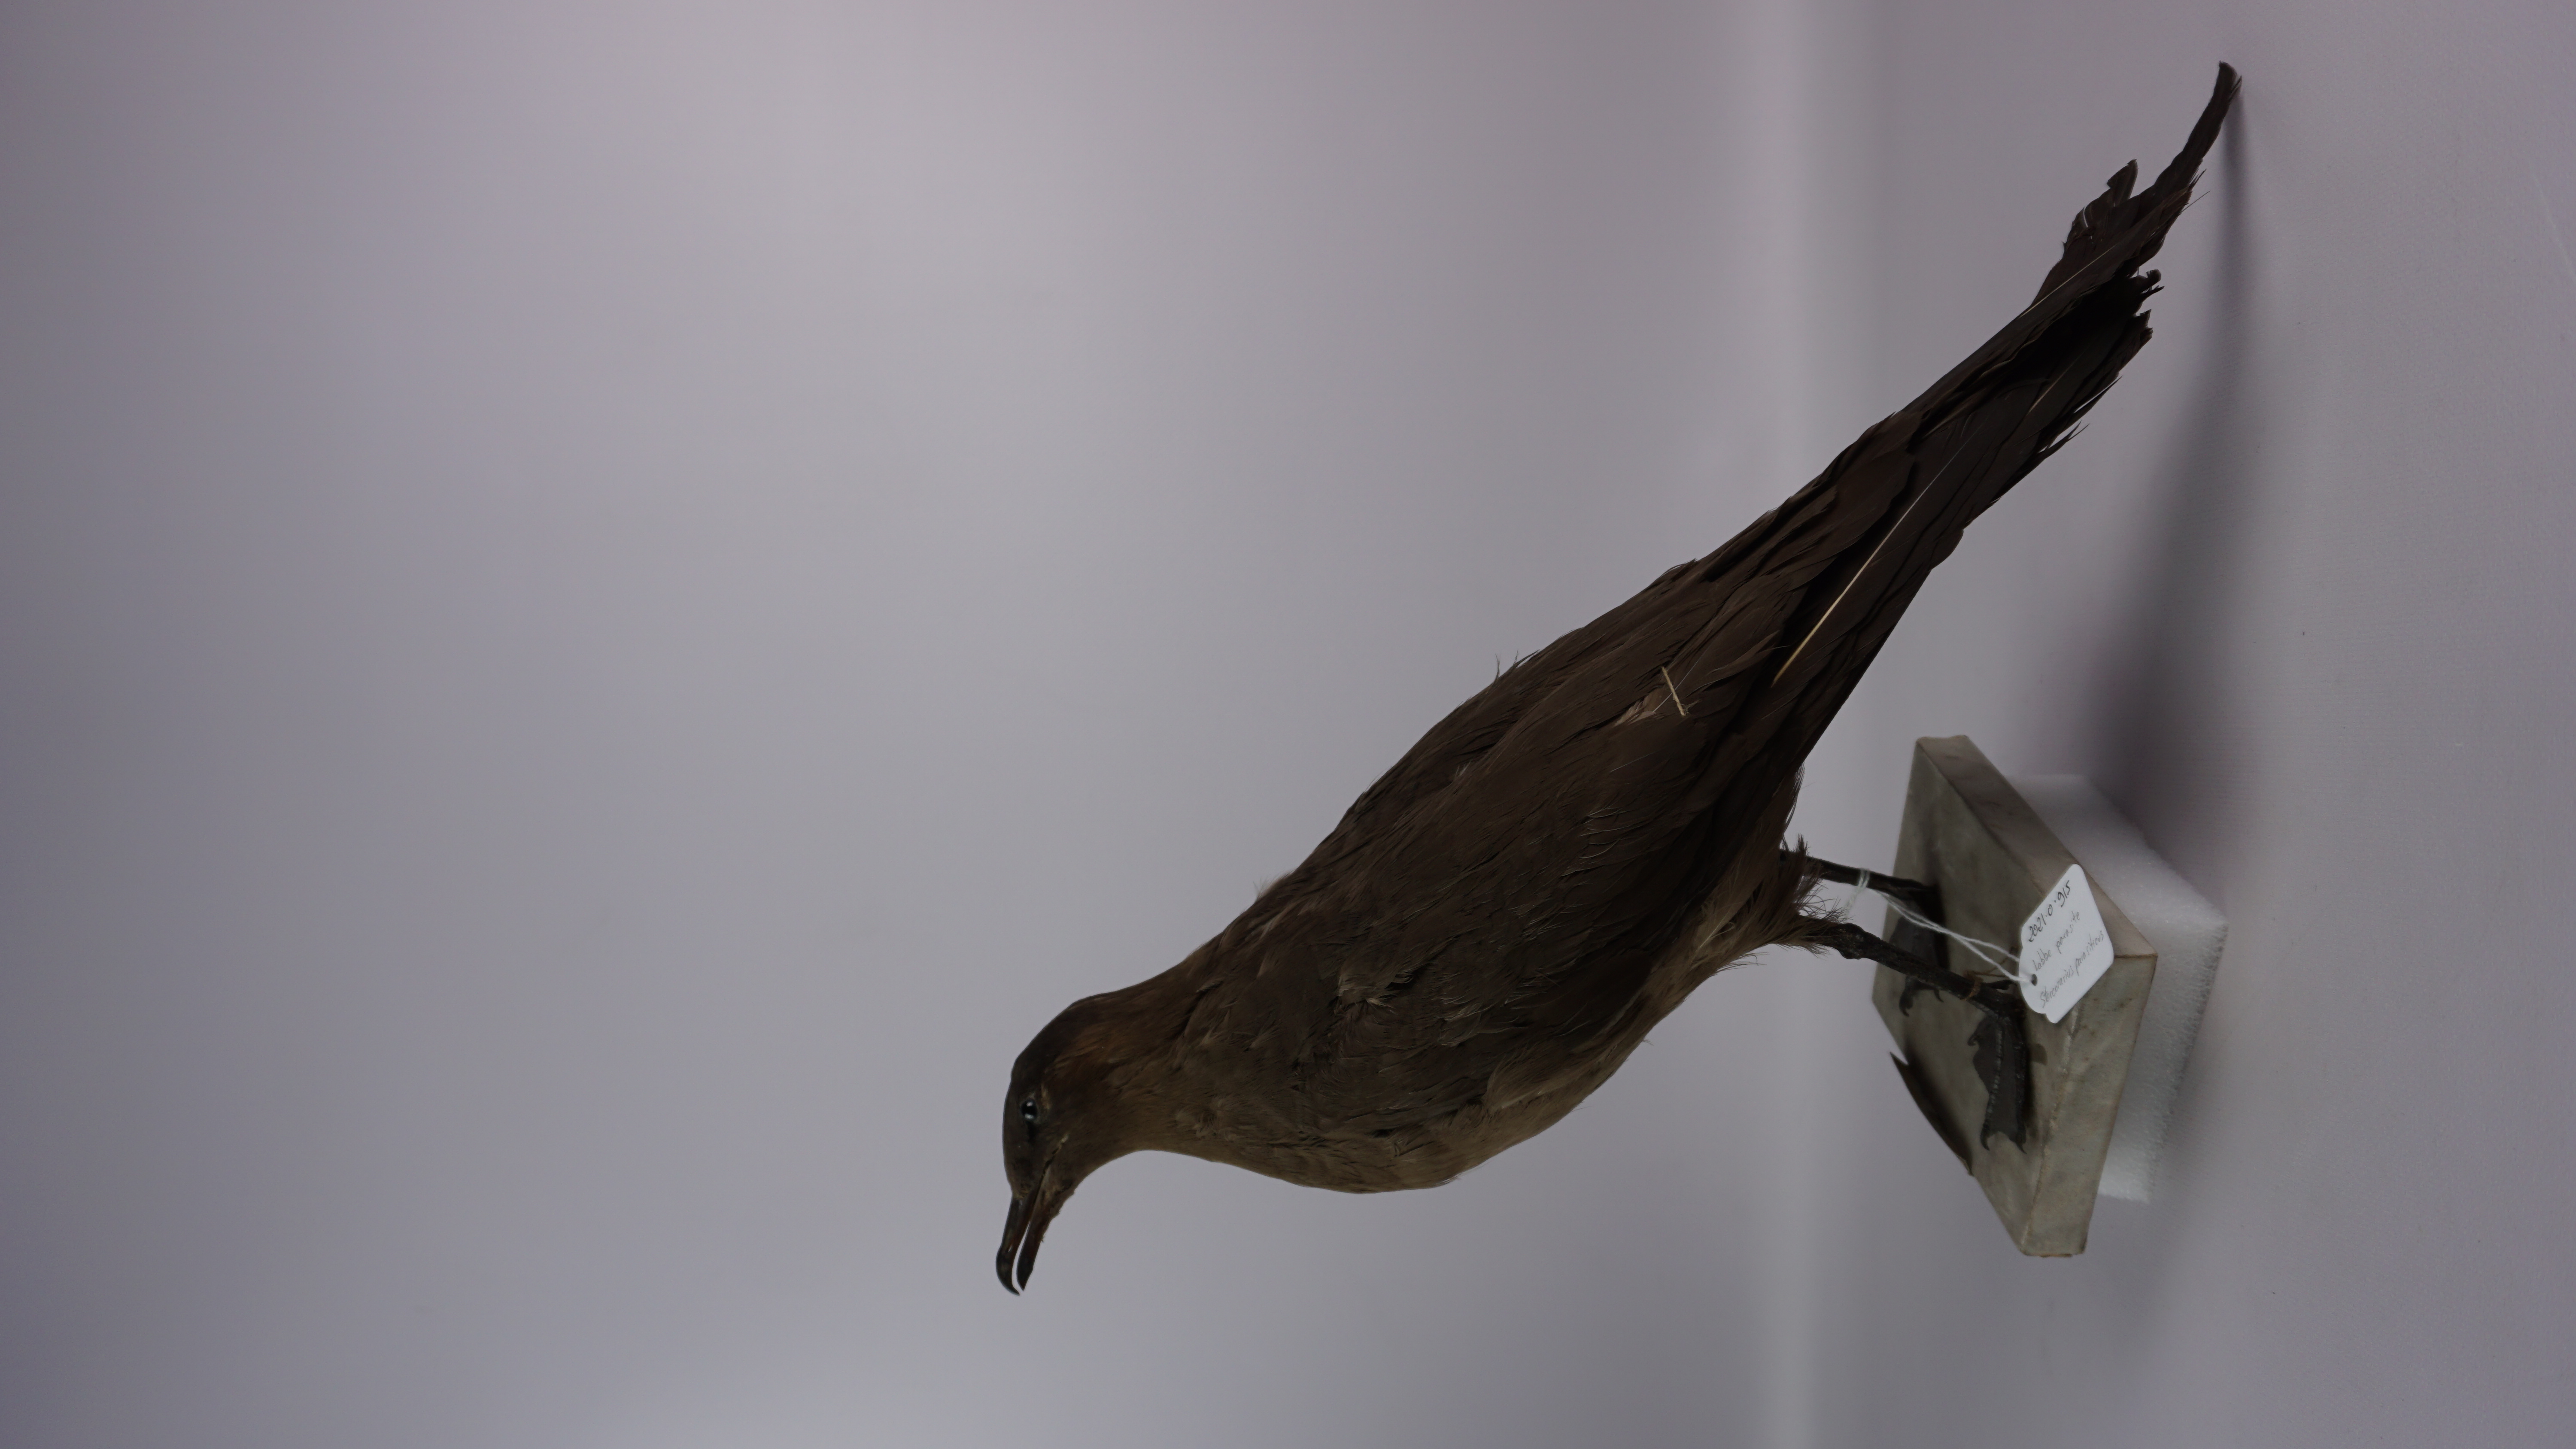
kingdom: Animalia
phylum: Chordata
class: Aves
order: Charadriiformes
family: Stercorariidae
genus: Stercorarius
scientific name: Stercorarius parasiticus
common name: Parasitic jaeger
